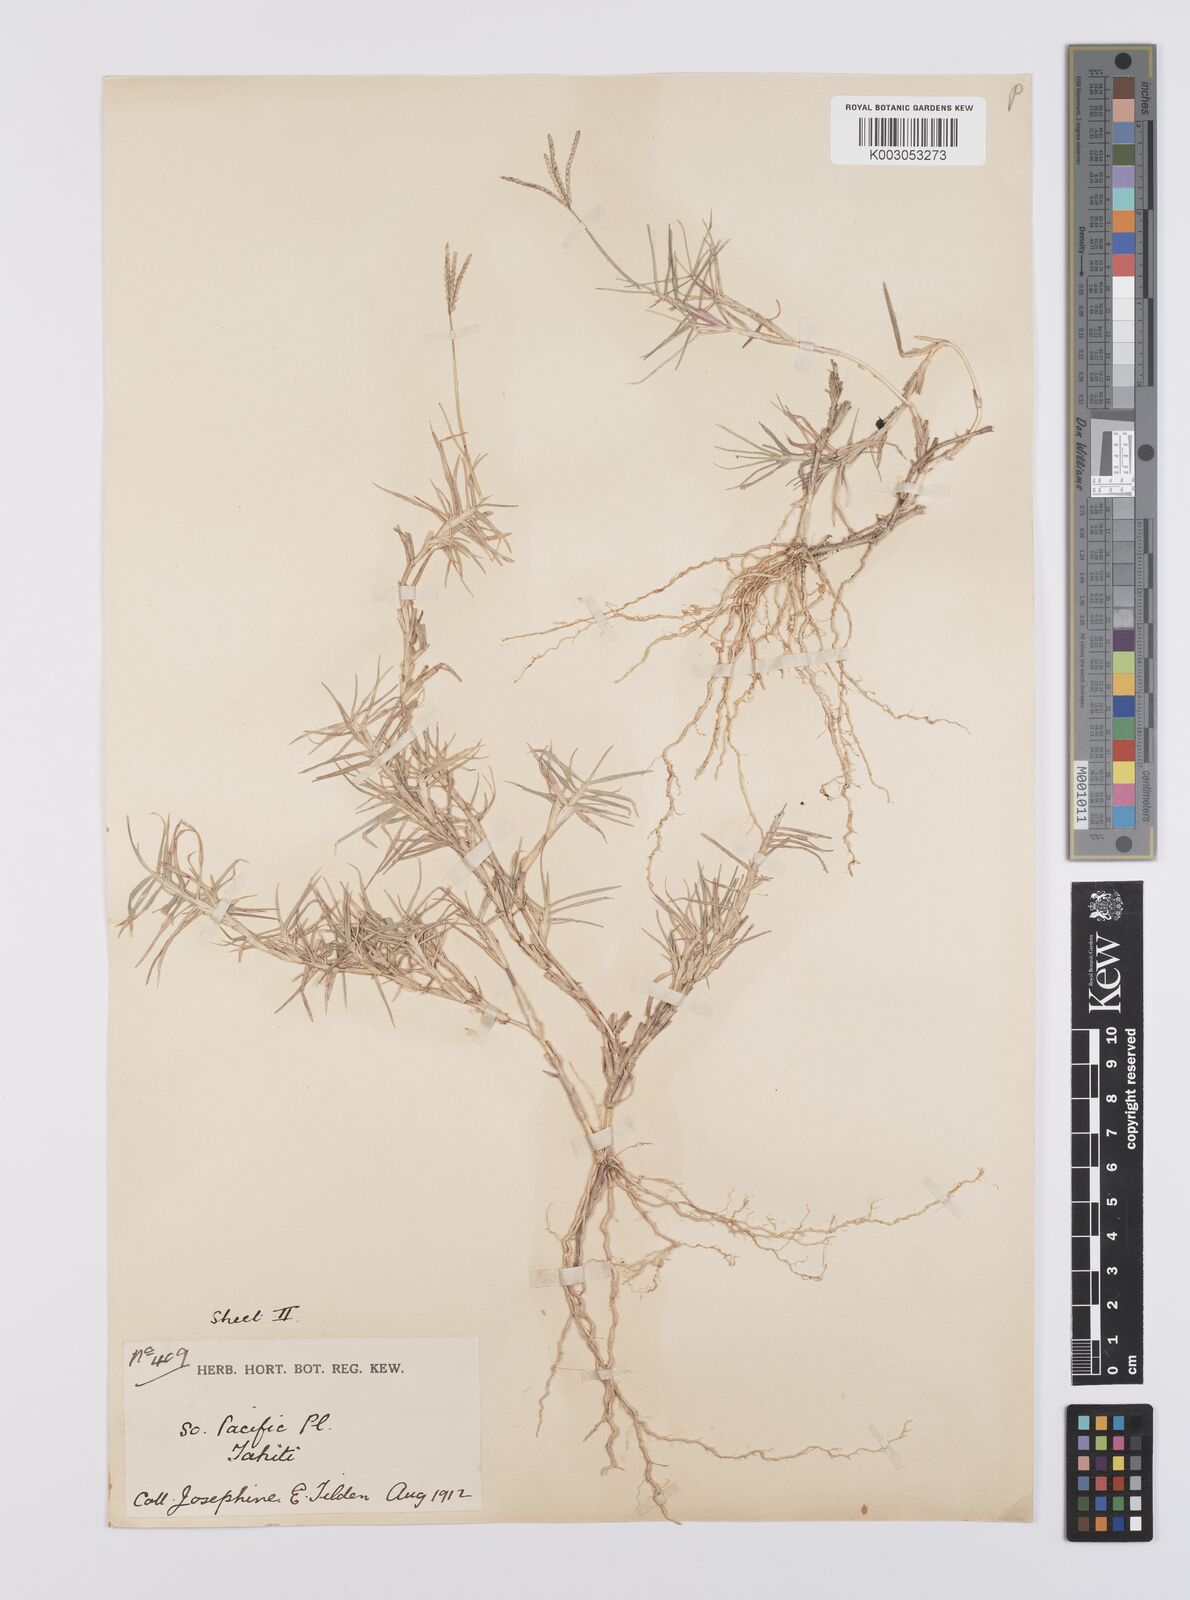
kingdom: Plantae
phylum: Tracheophyta
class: Liliopsida
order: Poales
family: Poaceae
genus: Cynodon
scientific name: Cynodon dactylon
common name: Bermuda grass
